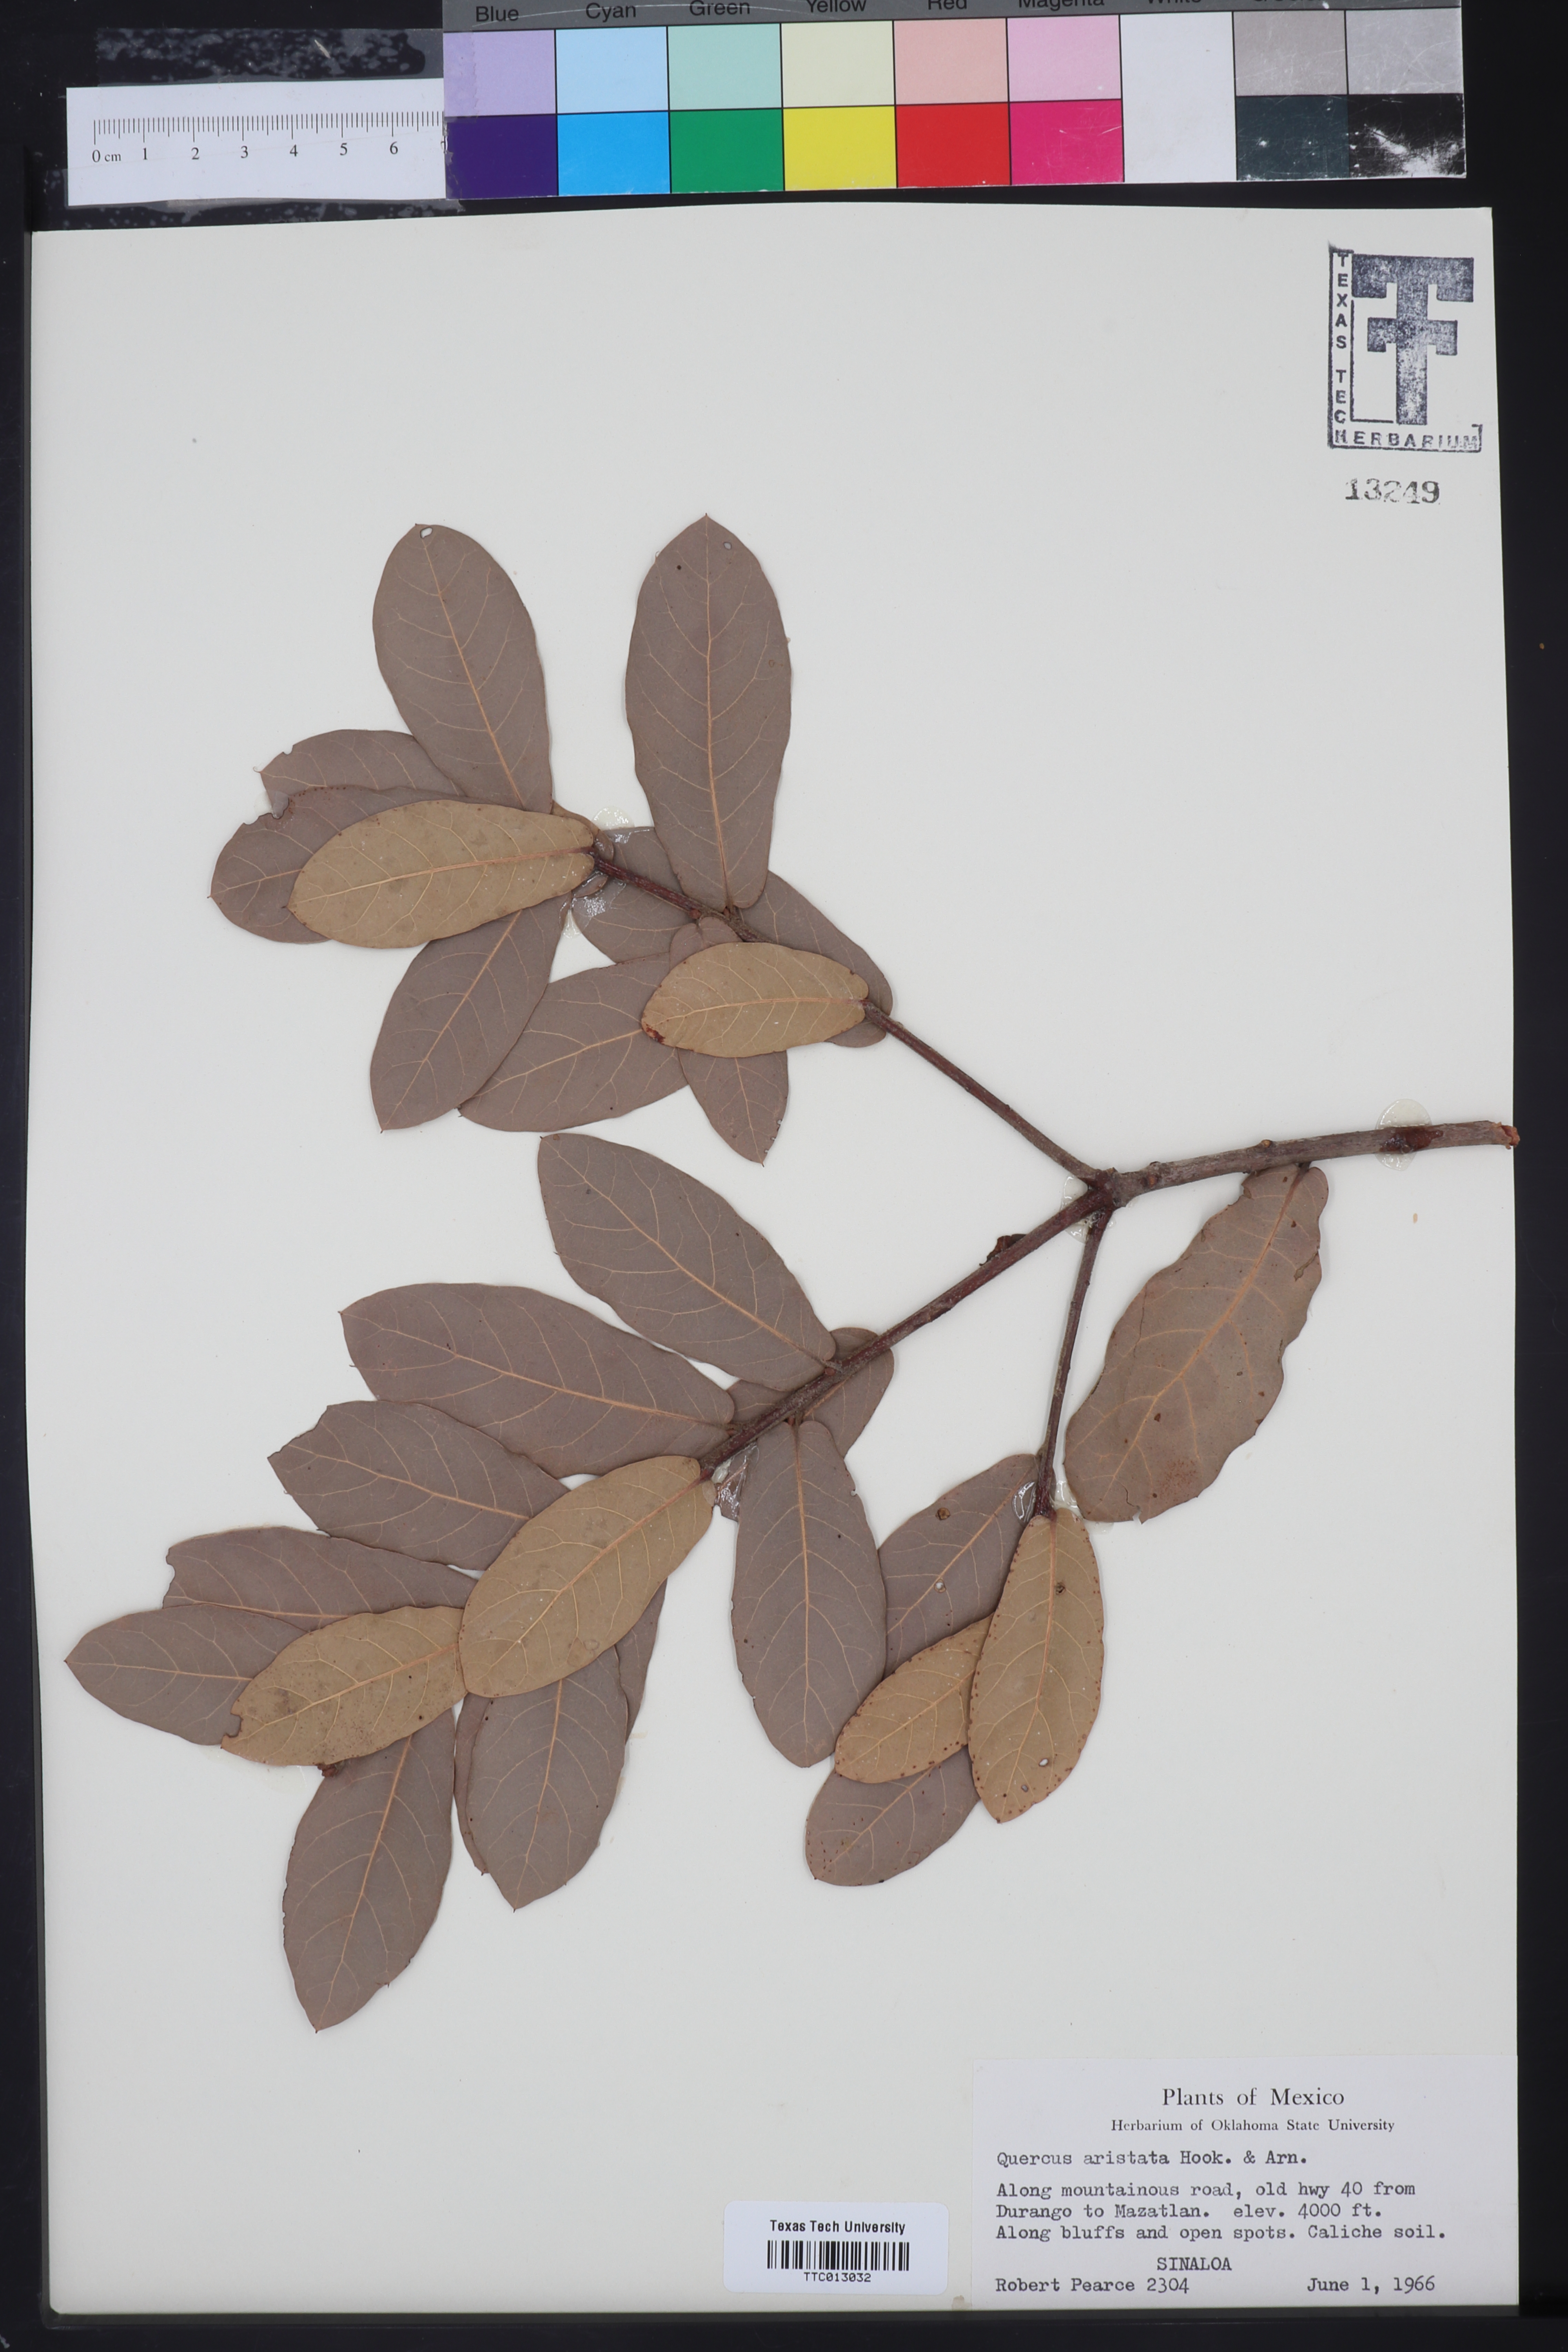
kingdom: Plantae
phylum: Tracheophyta
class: Magnoliopsida
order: Fagales
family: Fagaceae
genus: Quercus
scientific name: Quercus aristata
